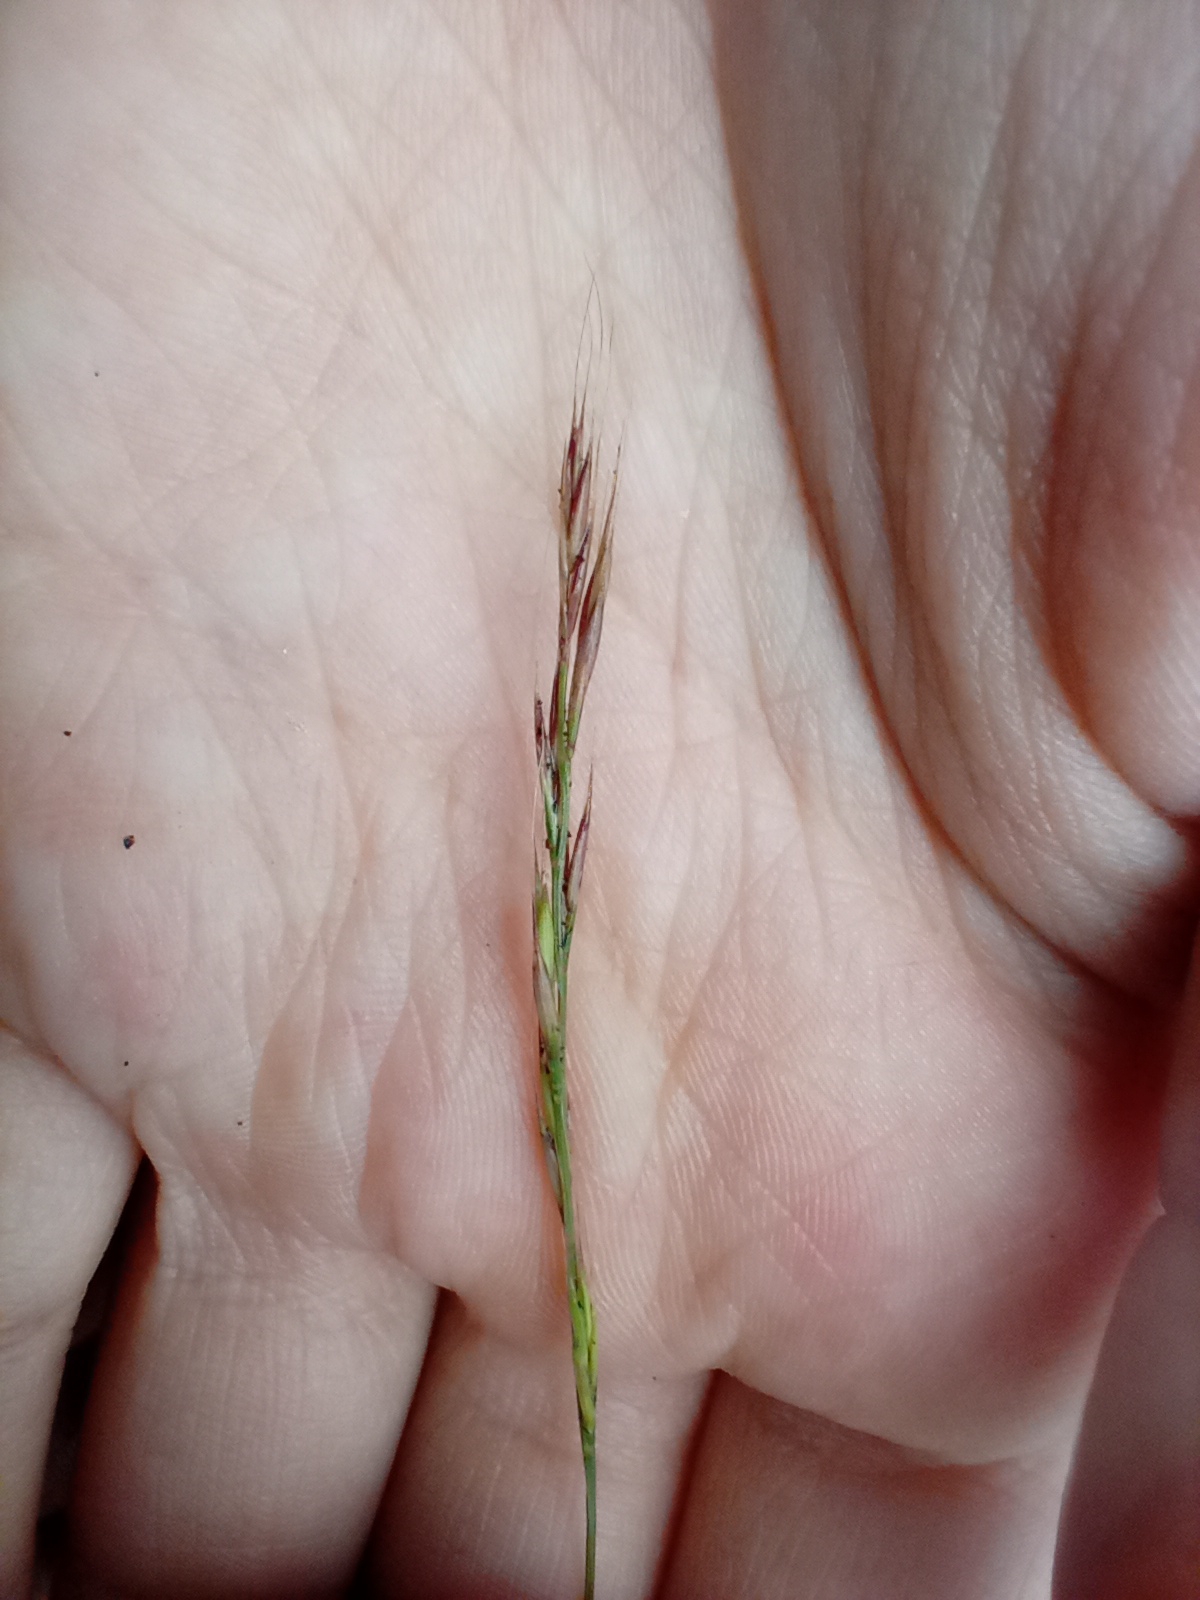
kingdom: Plantae
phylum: Tracheophyta
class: Liliopsida
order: Poales
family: Poaceae
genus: Festuca
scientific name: Festuca myuros
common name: Stor væselhale
